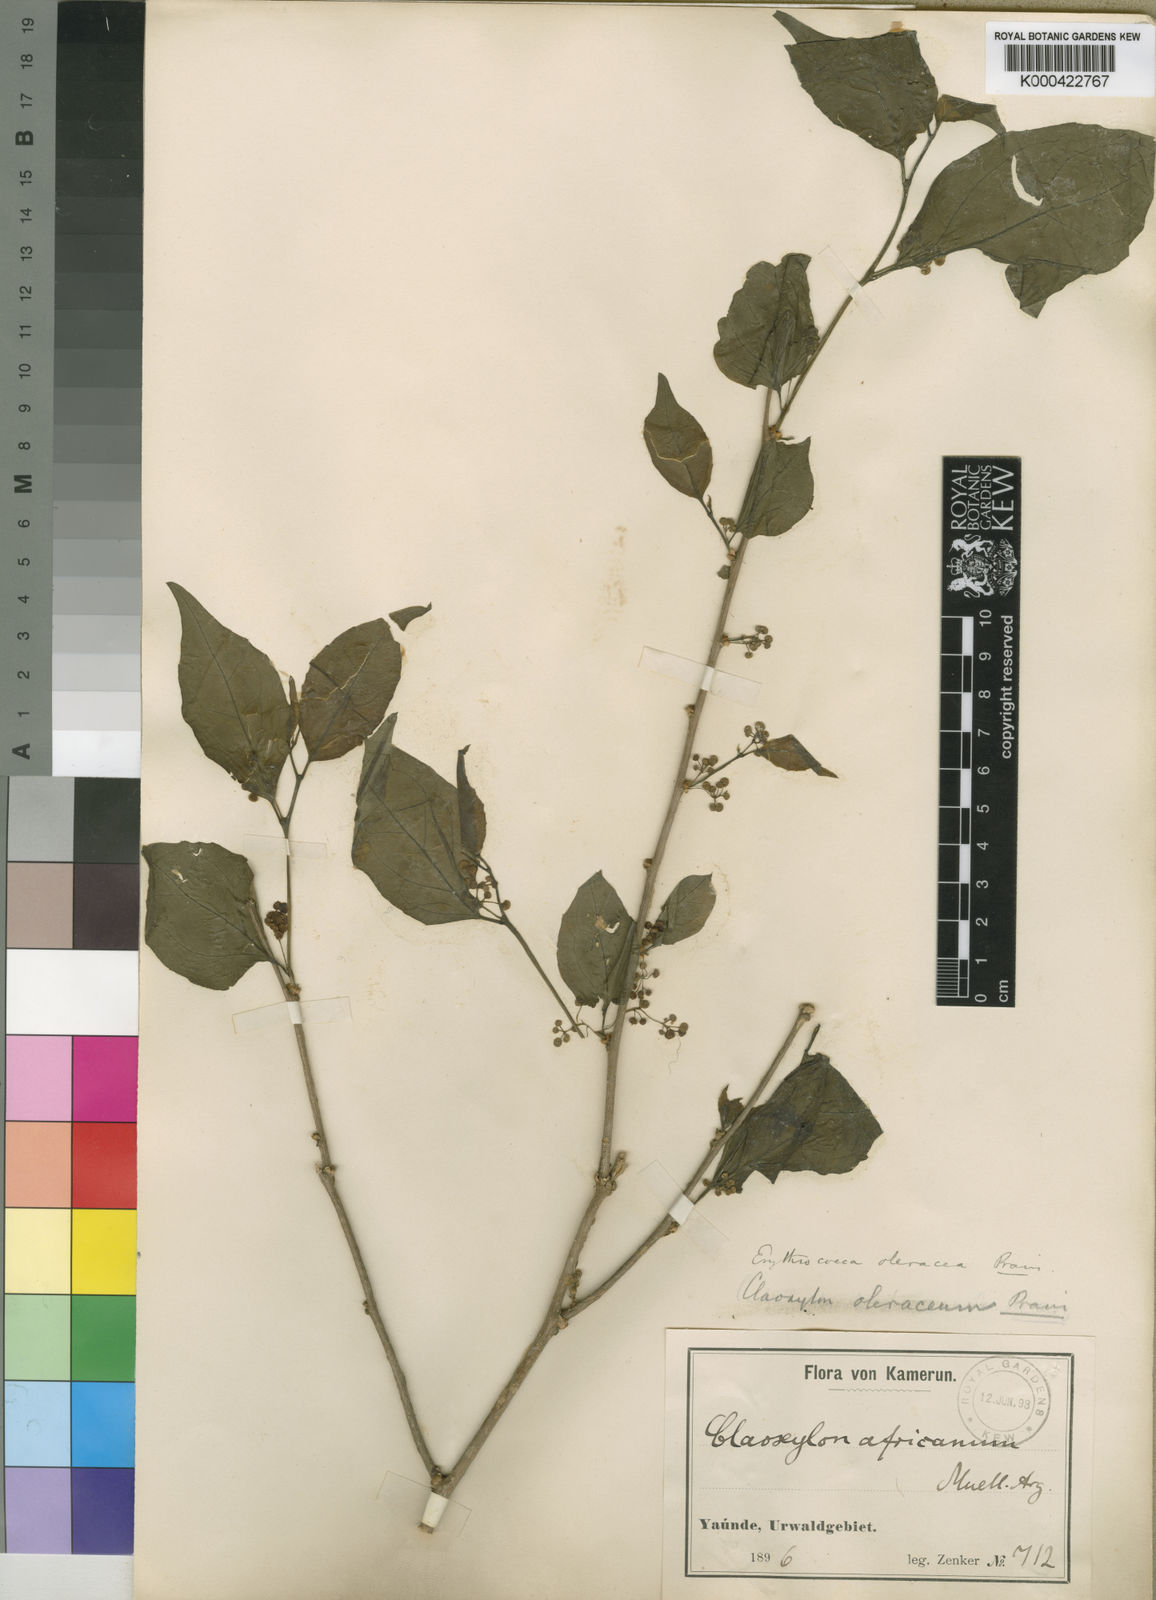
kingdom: Plantae
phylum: Tracheophyta
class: Magnoliopsida
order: Malpighiales
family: Euphorbiaceae
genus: Erythrococca
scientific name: Erythrococca atrovirens
